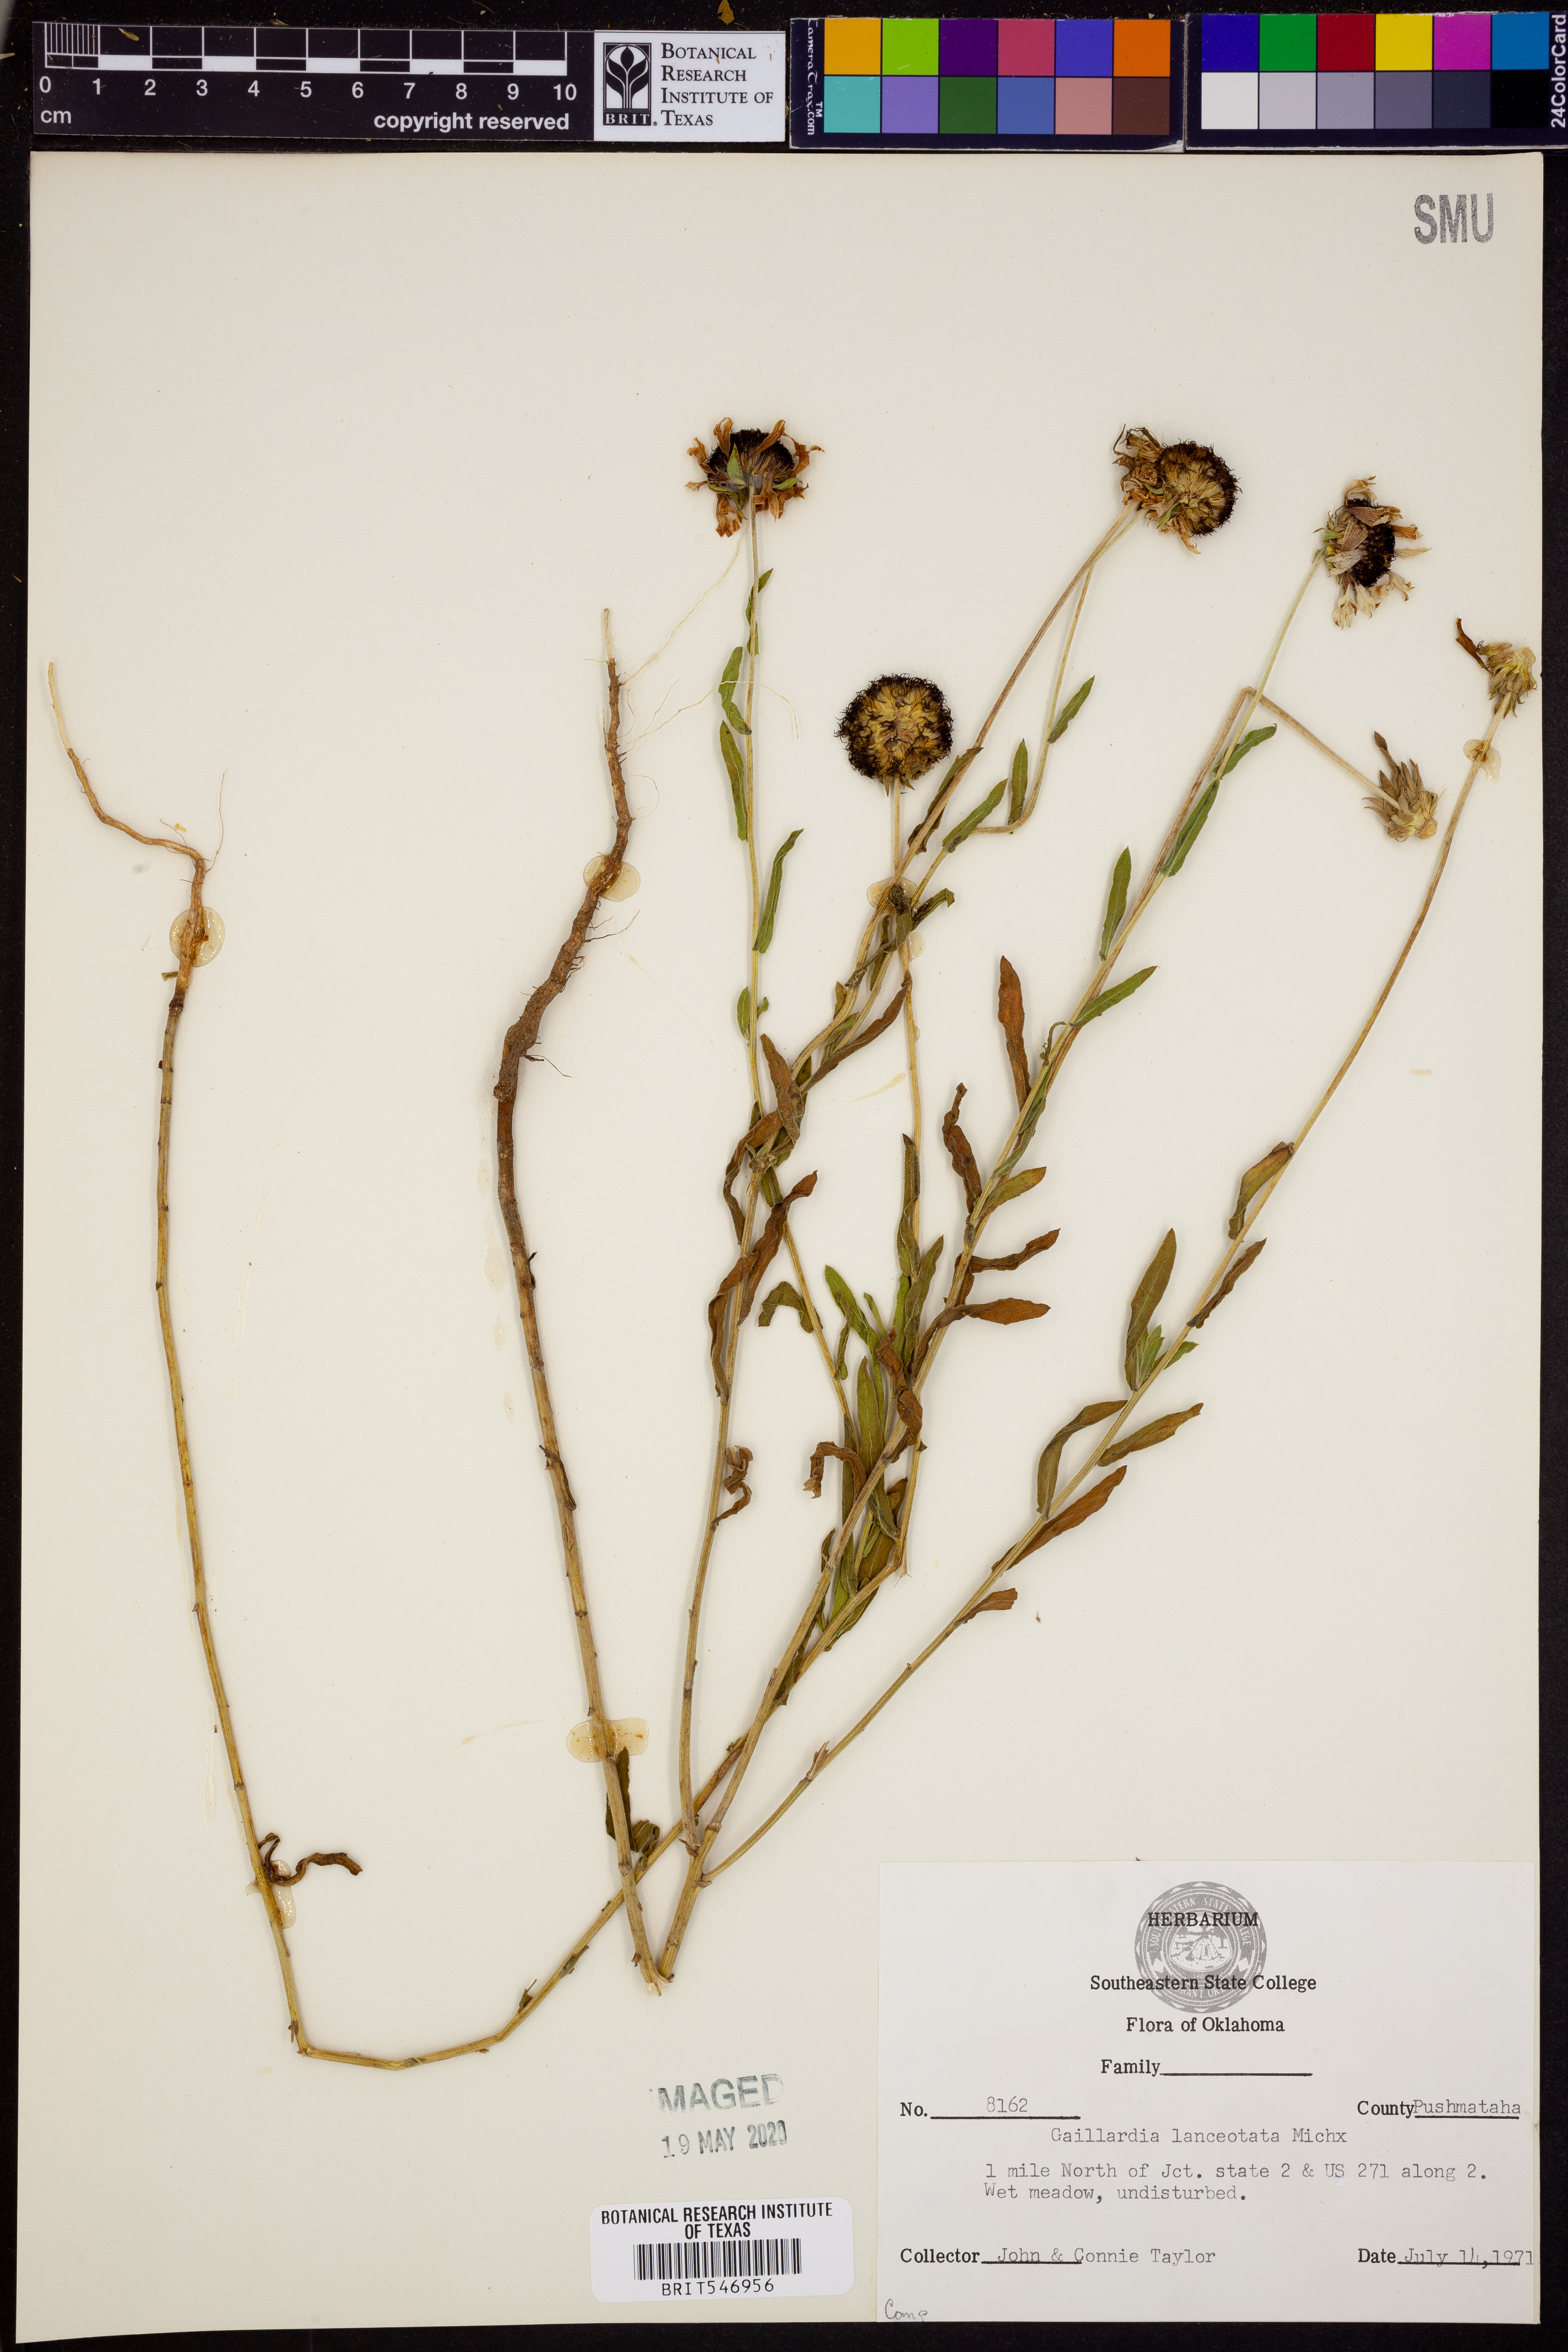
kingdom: Plantae
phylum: Tracheophyta
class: Magnoliopsida
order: Asterales
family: Asteraceae
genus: Gaillardia
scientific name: Gaillardia aestivalis
